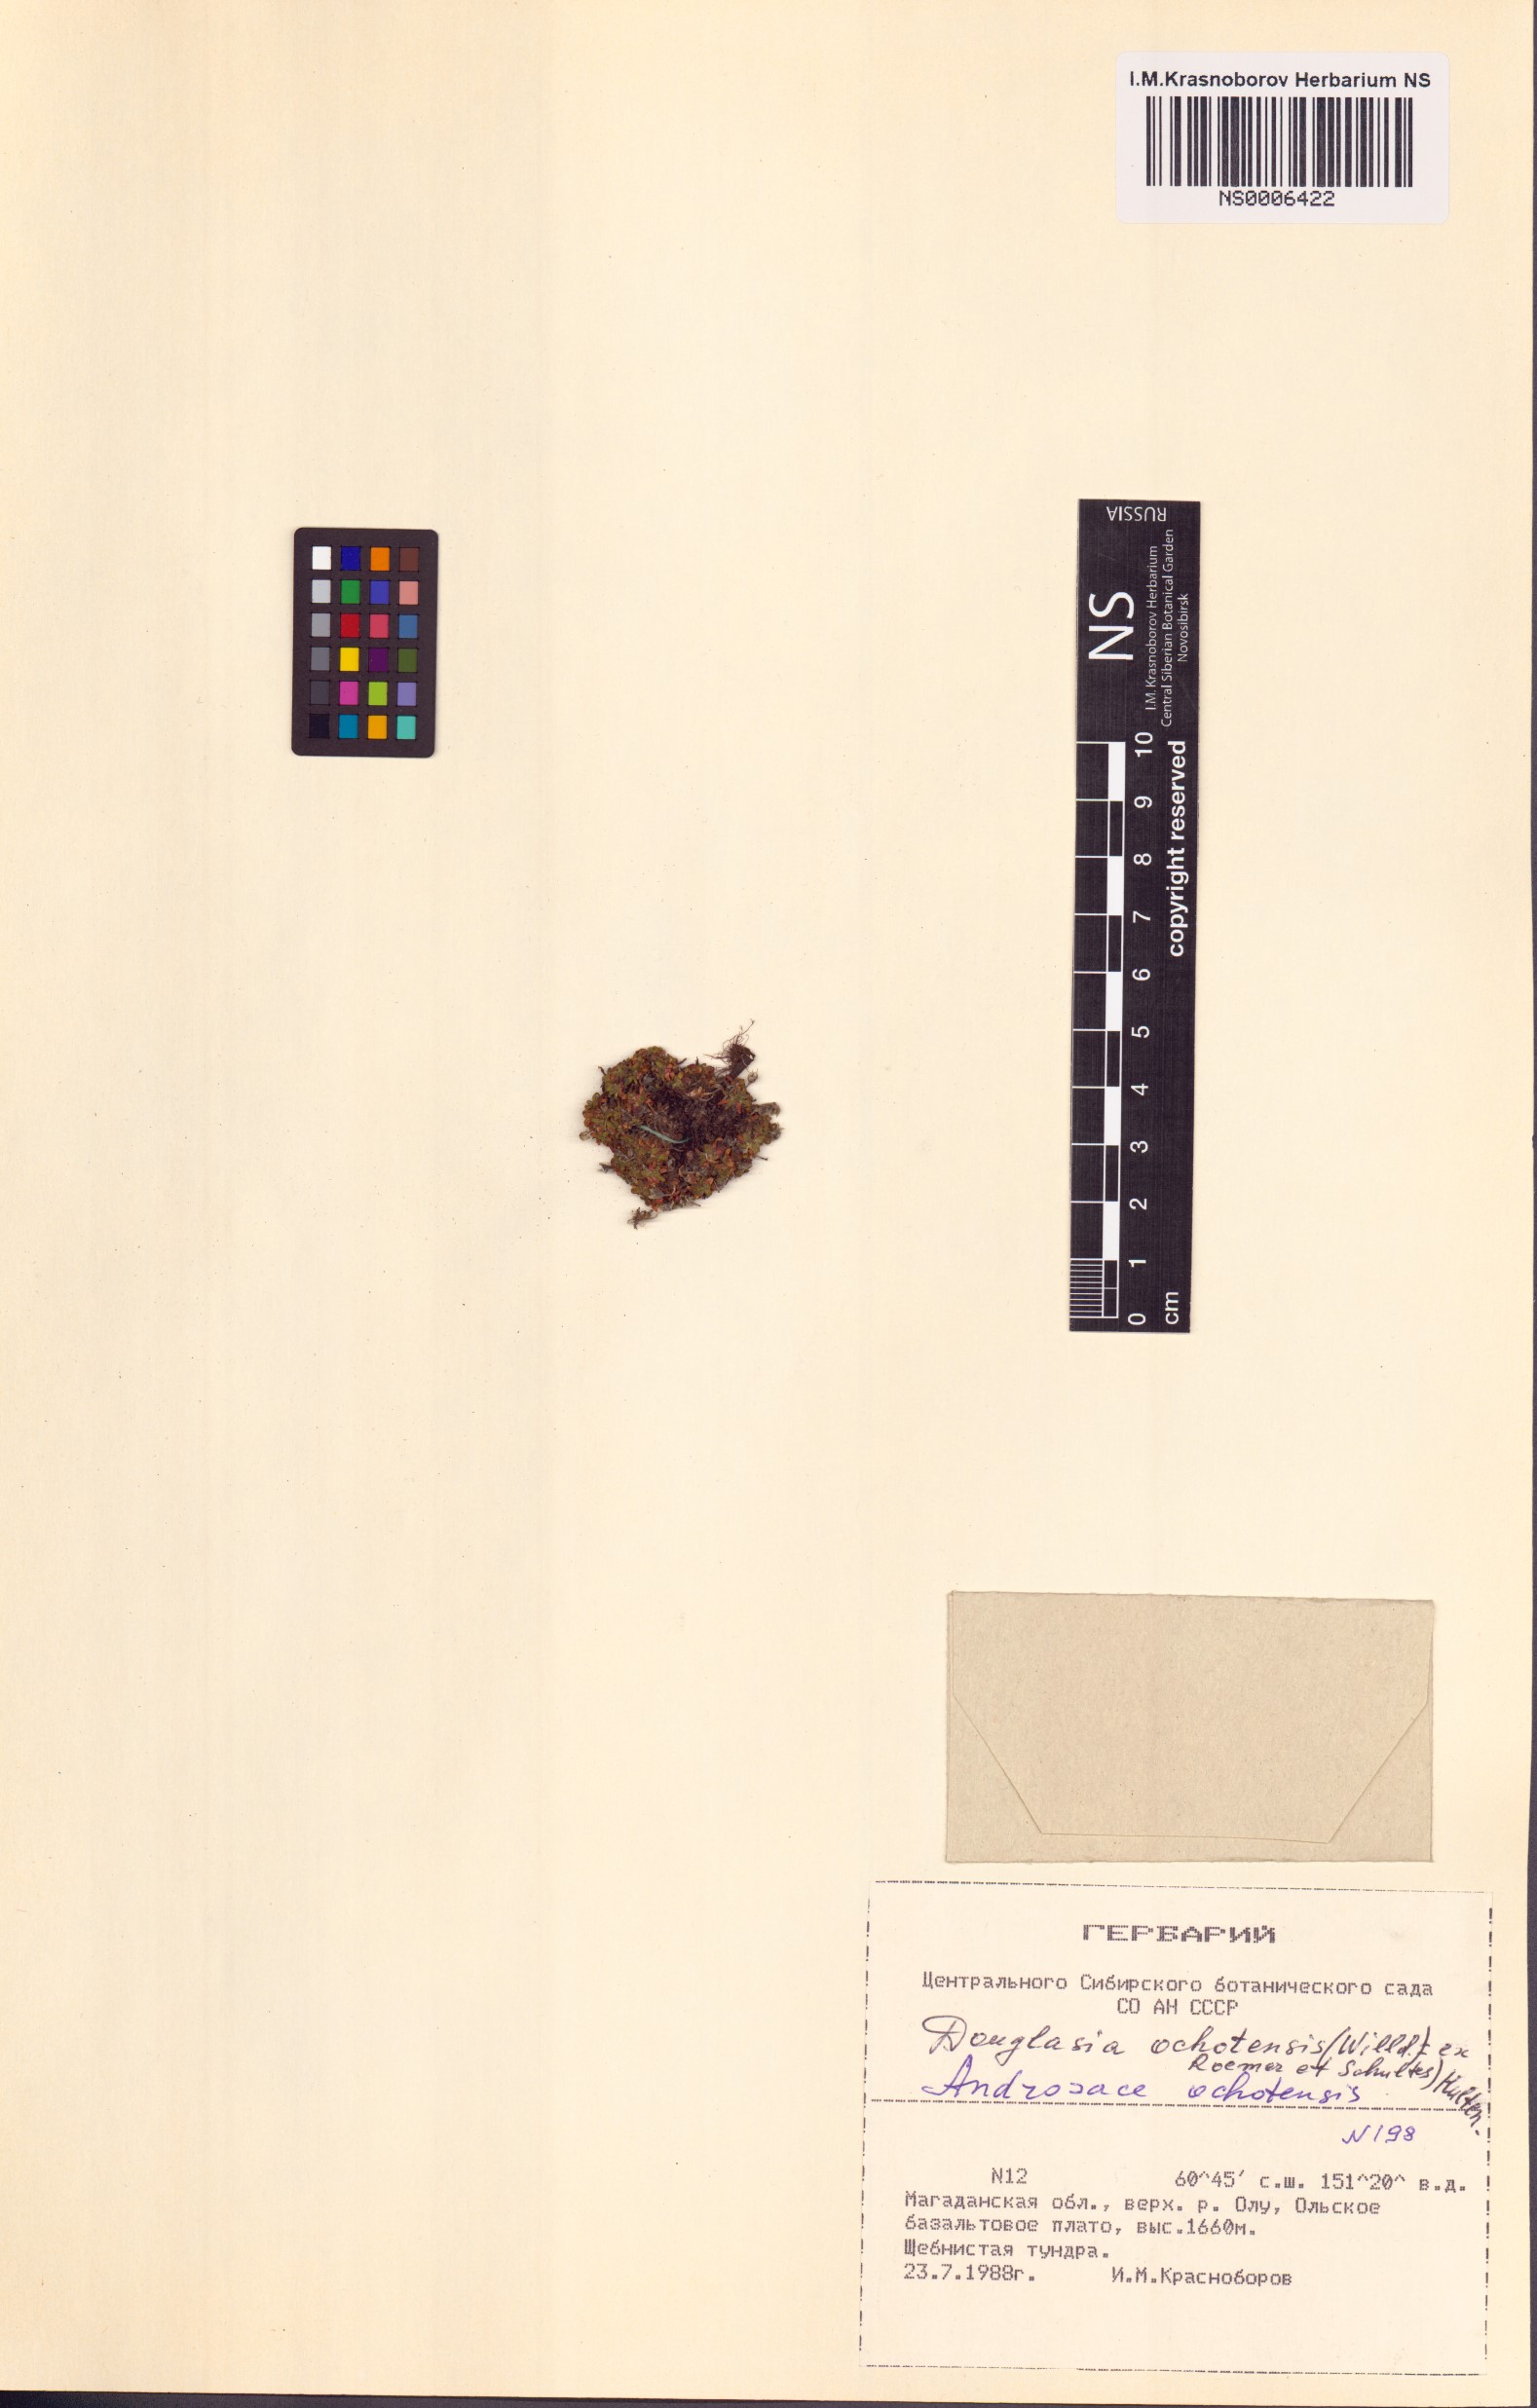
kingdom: Plantae
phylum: Tracheophyta
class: Magnoliopsida
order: Ericales
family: Primulaceae
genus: Androsace
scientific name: Androsace ochotensis
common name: Alaska dwarf-primrose
